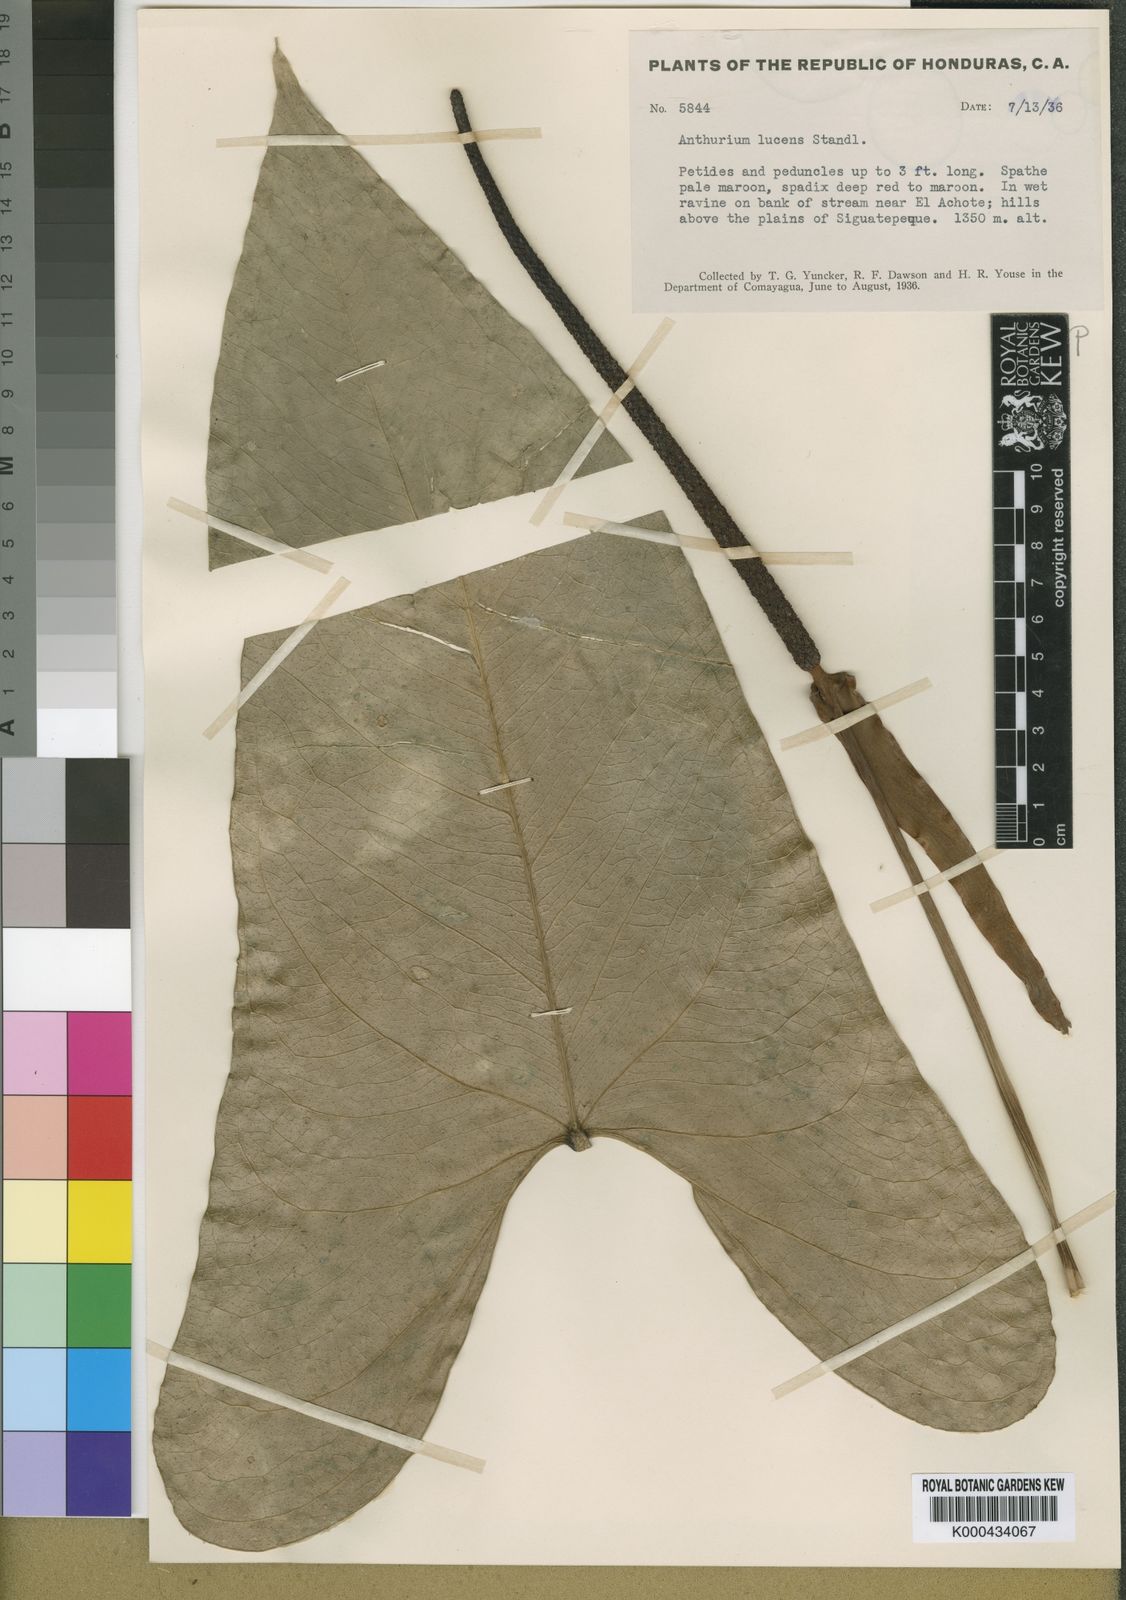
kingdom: Plantae
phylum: Tracheophyta
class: Liliopsida
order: Alismatales
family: Araceae
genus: Anthurium
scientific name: Anthurium lucens
